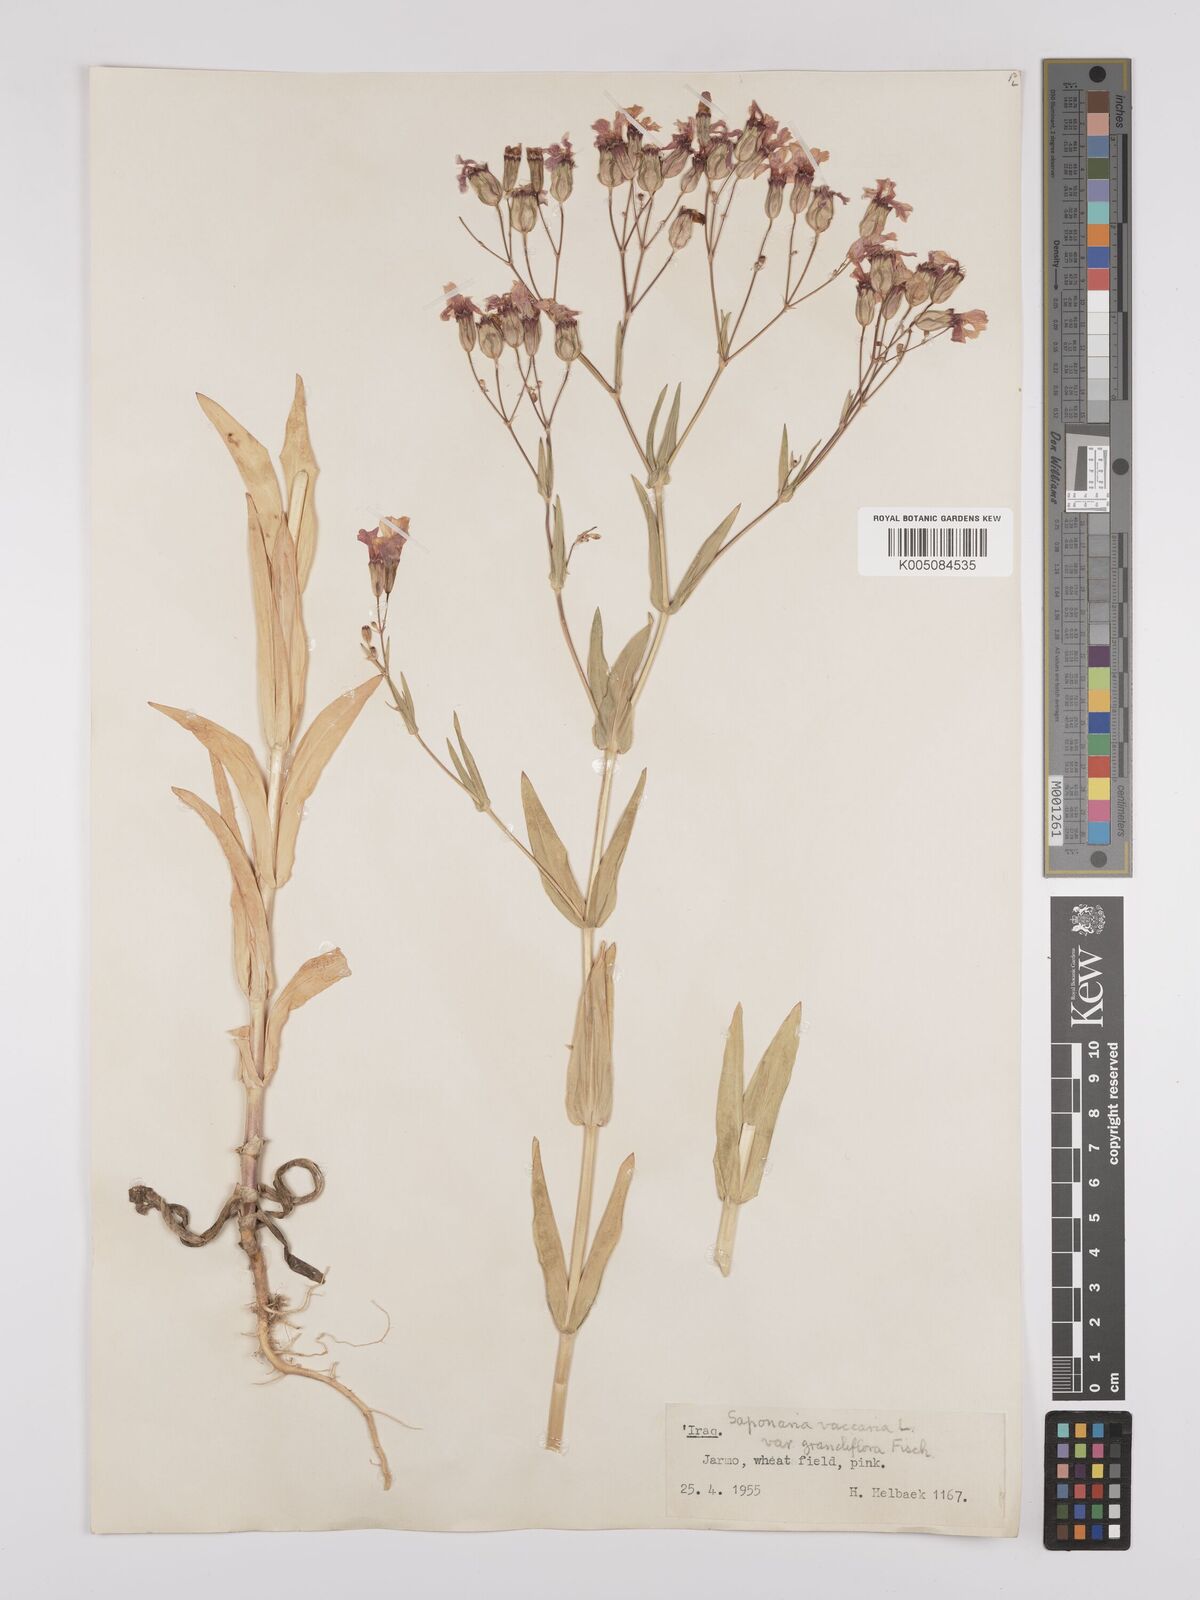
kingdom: Plantae
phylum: Tracheophyta
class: Magnoliopsida
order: Caryophyllales
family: Caryophyllaceae
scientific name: Caryophyllaceae
